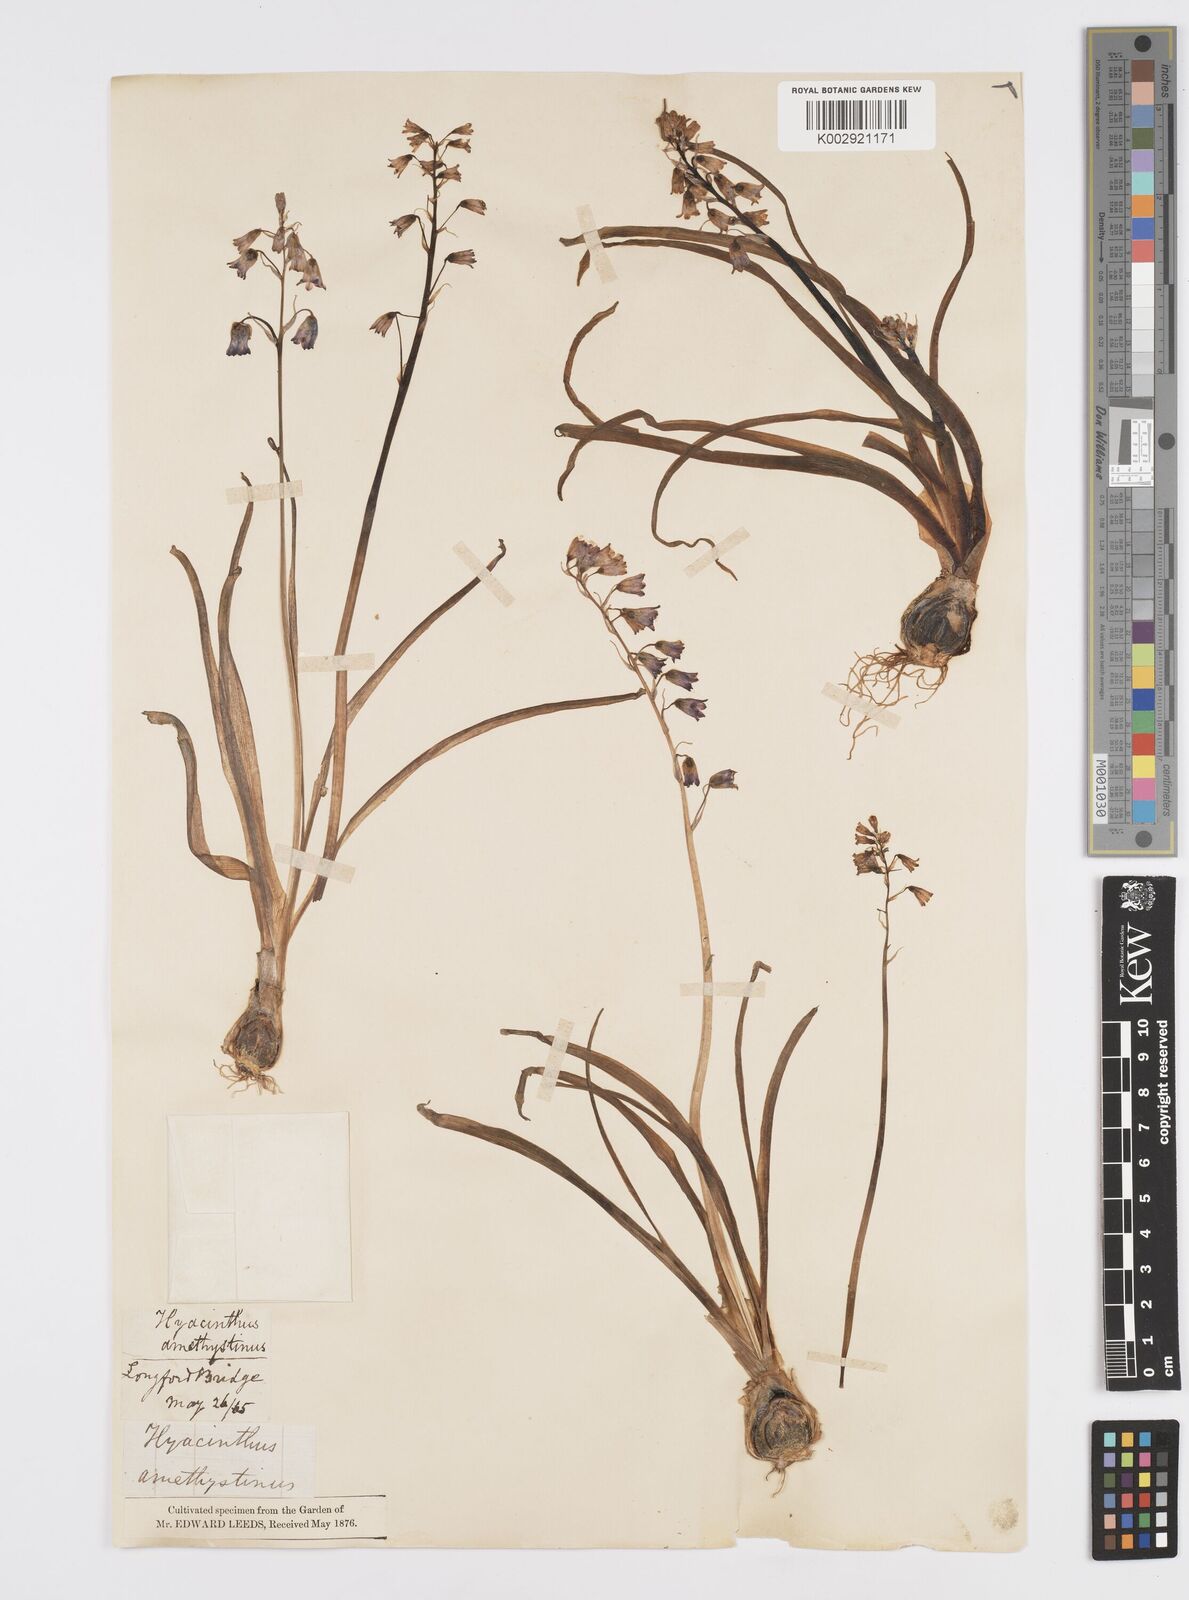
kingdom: Plantae
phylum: Tracheophyta
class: Liliopsida
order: Asparagales
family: Asparagaceae
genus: Brimeura
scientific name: Brimeura
